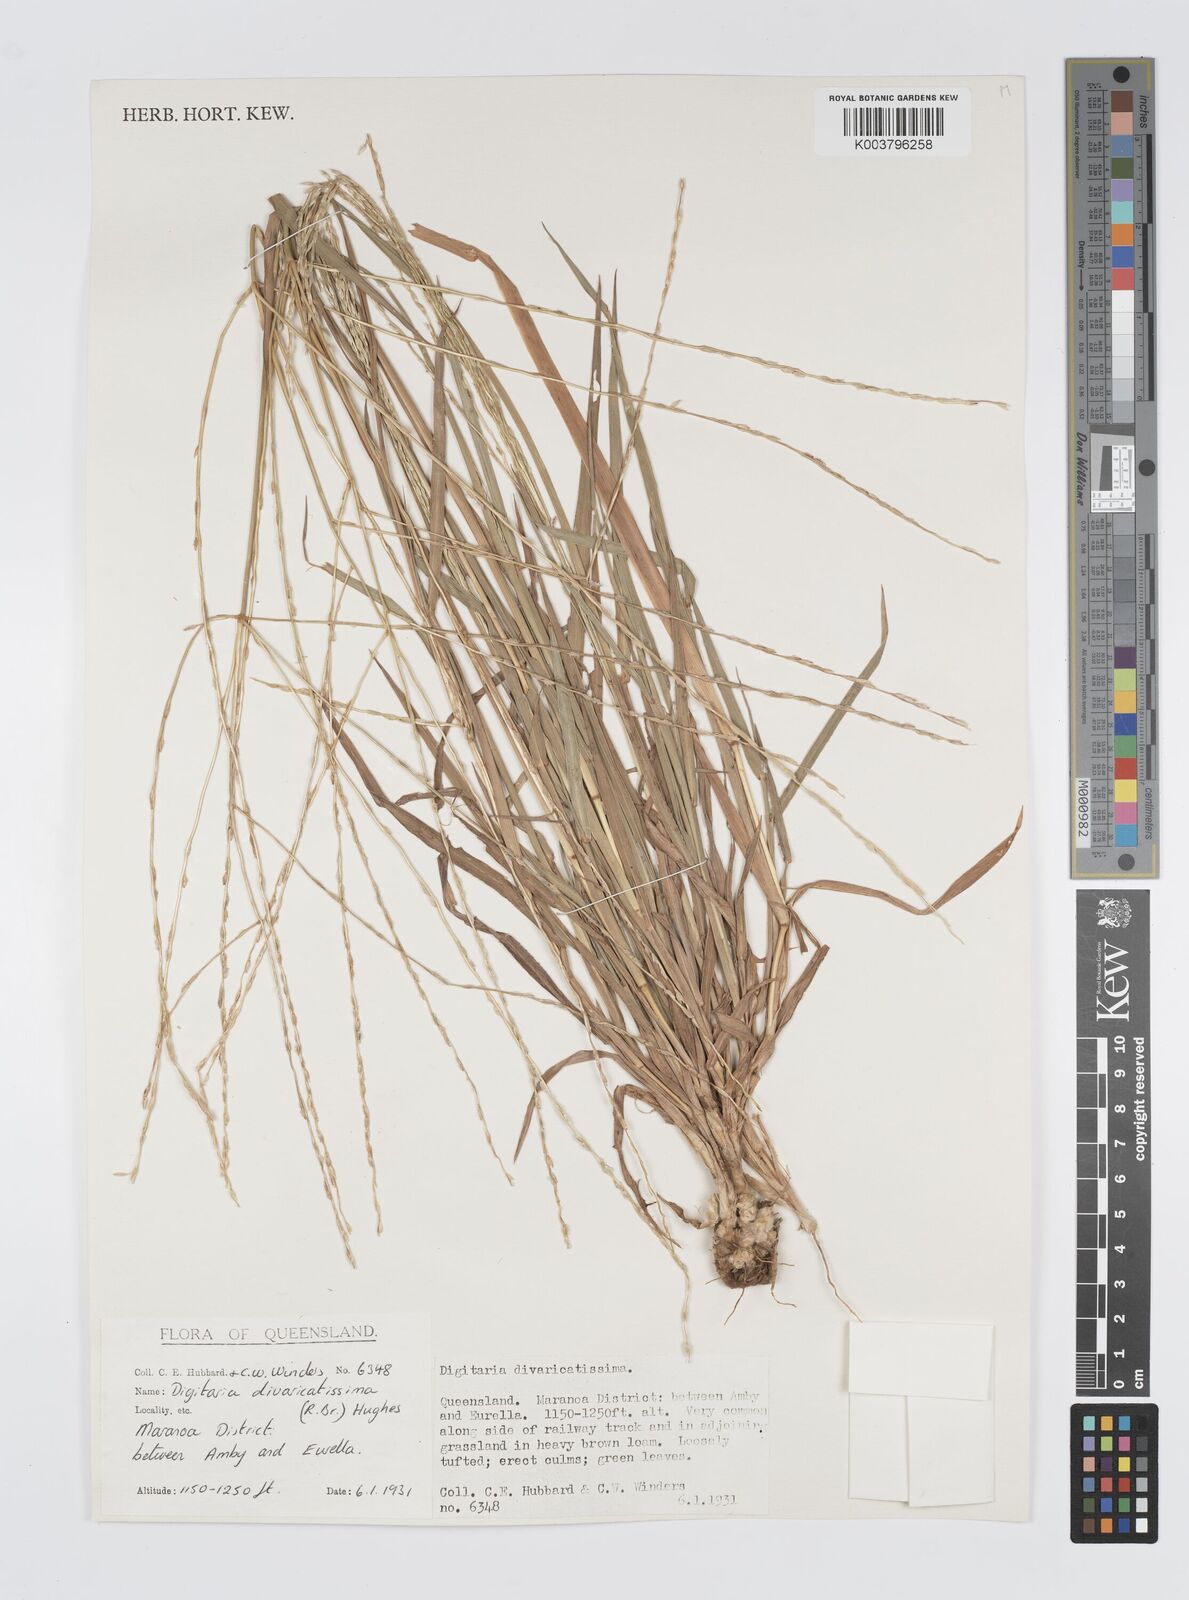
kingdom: Plantae
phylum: Tracheophyta
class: Liliopsida
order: Poales
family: Poaceae
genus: Digitaria
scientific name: Digitaria divaricatissima
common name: Crabgrass
